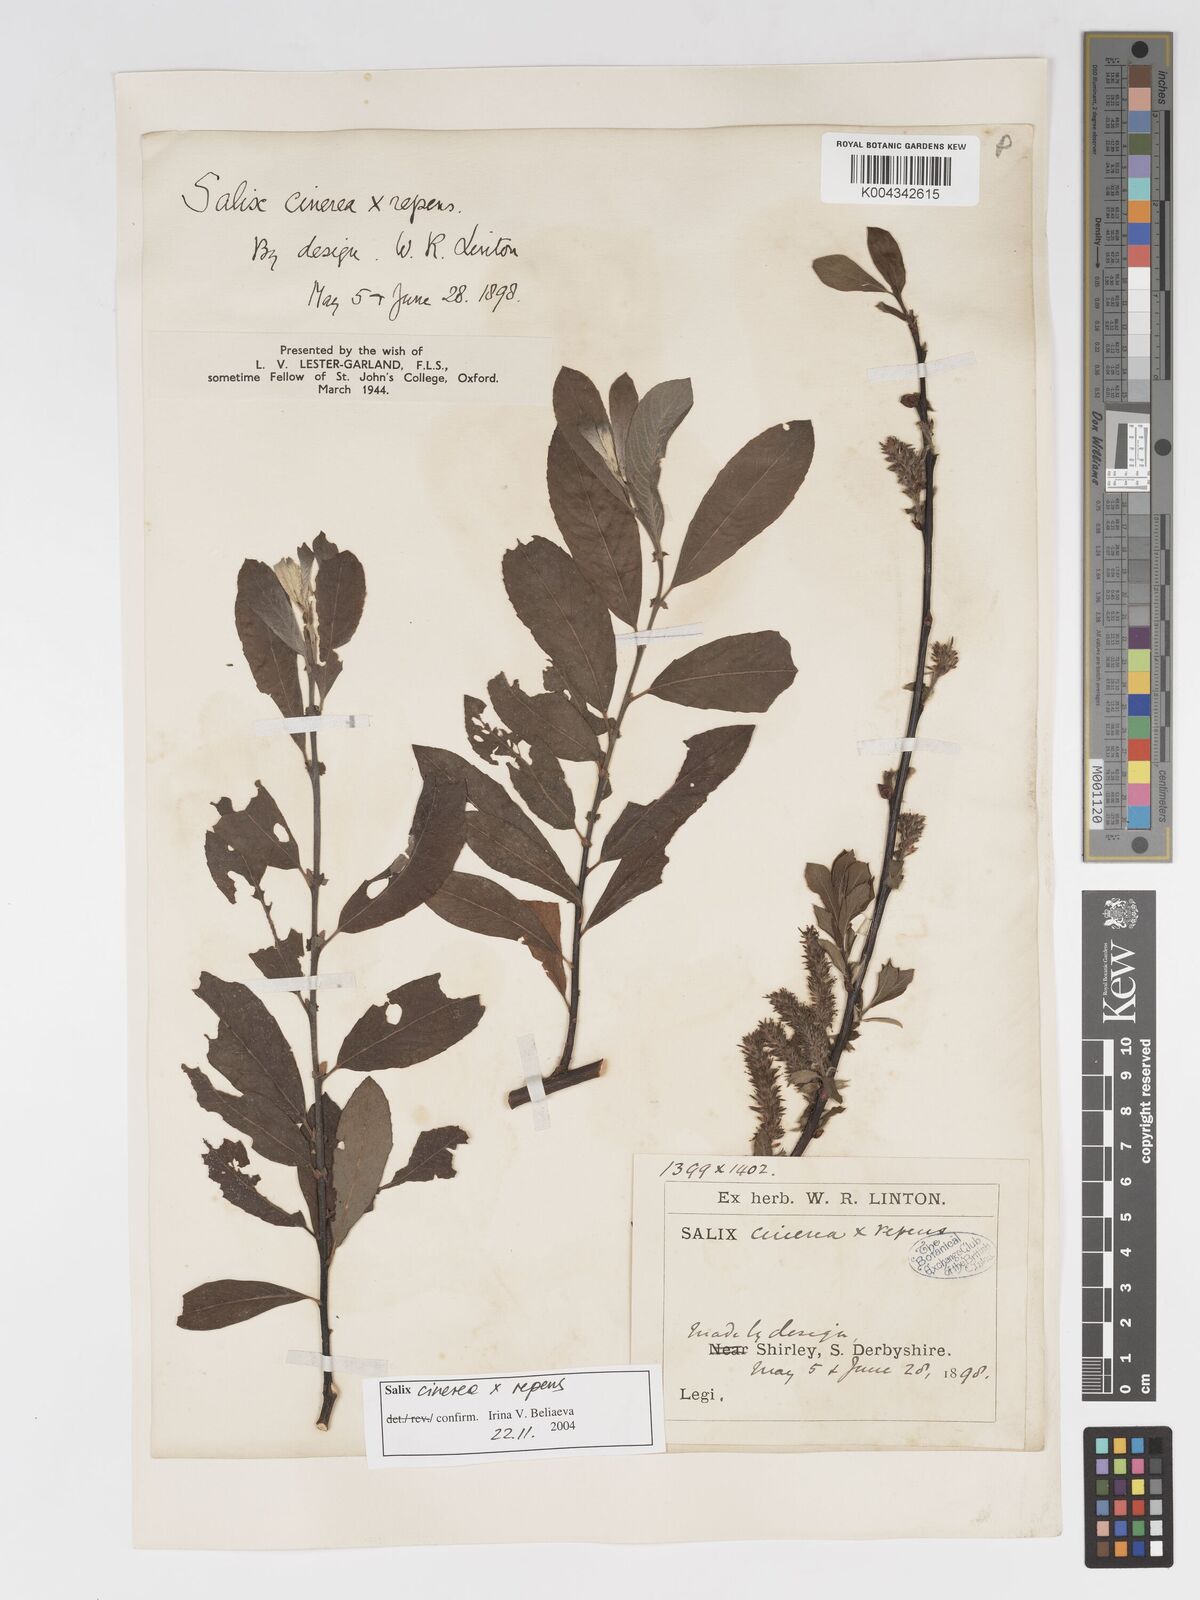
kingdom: Plantae
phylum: Tracheophyta
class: Magnoliopsida
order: Malpighiales
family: Salicaceae
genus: Salix
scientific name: Salix cinerea
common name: Common sallow
